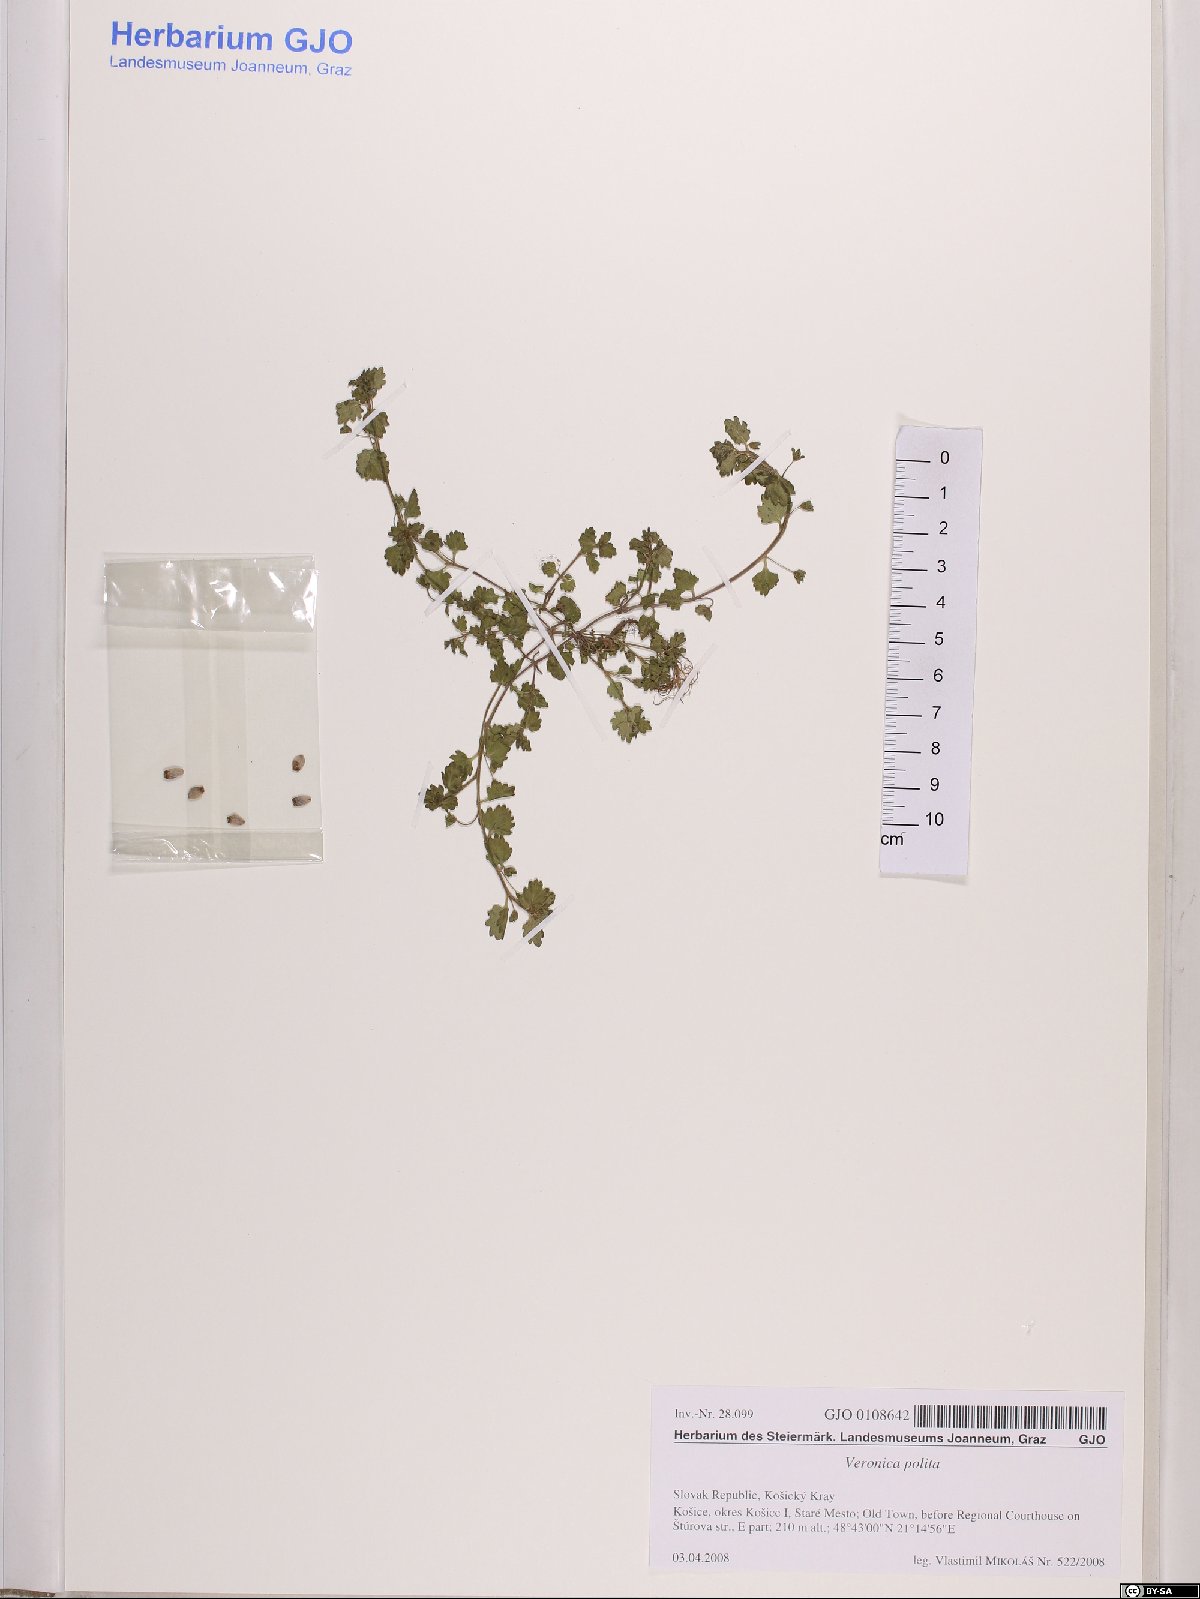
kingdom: Plantae
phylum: Tracheophyta
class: Magnoliopsida
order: Lamiales
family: Plantaginaceae
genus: Veronica
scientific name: Veronica polita
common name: Grey field-speedwell
